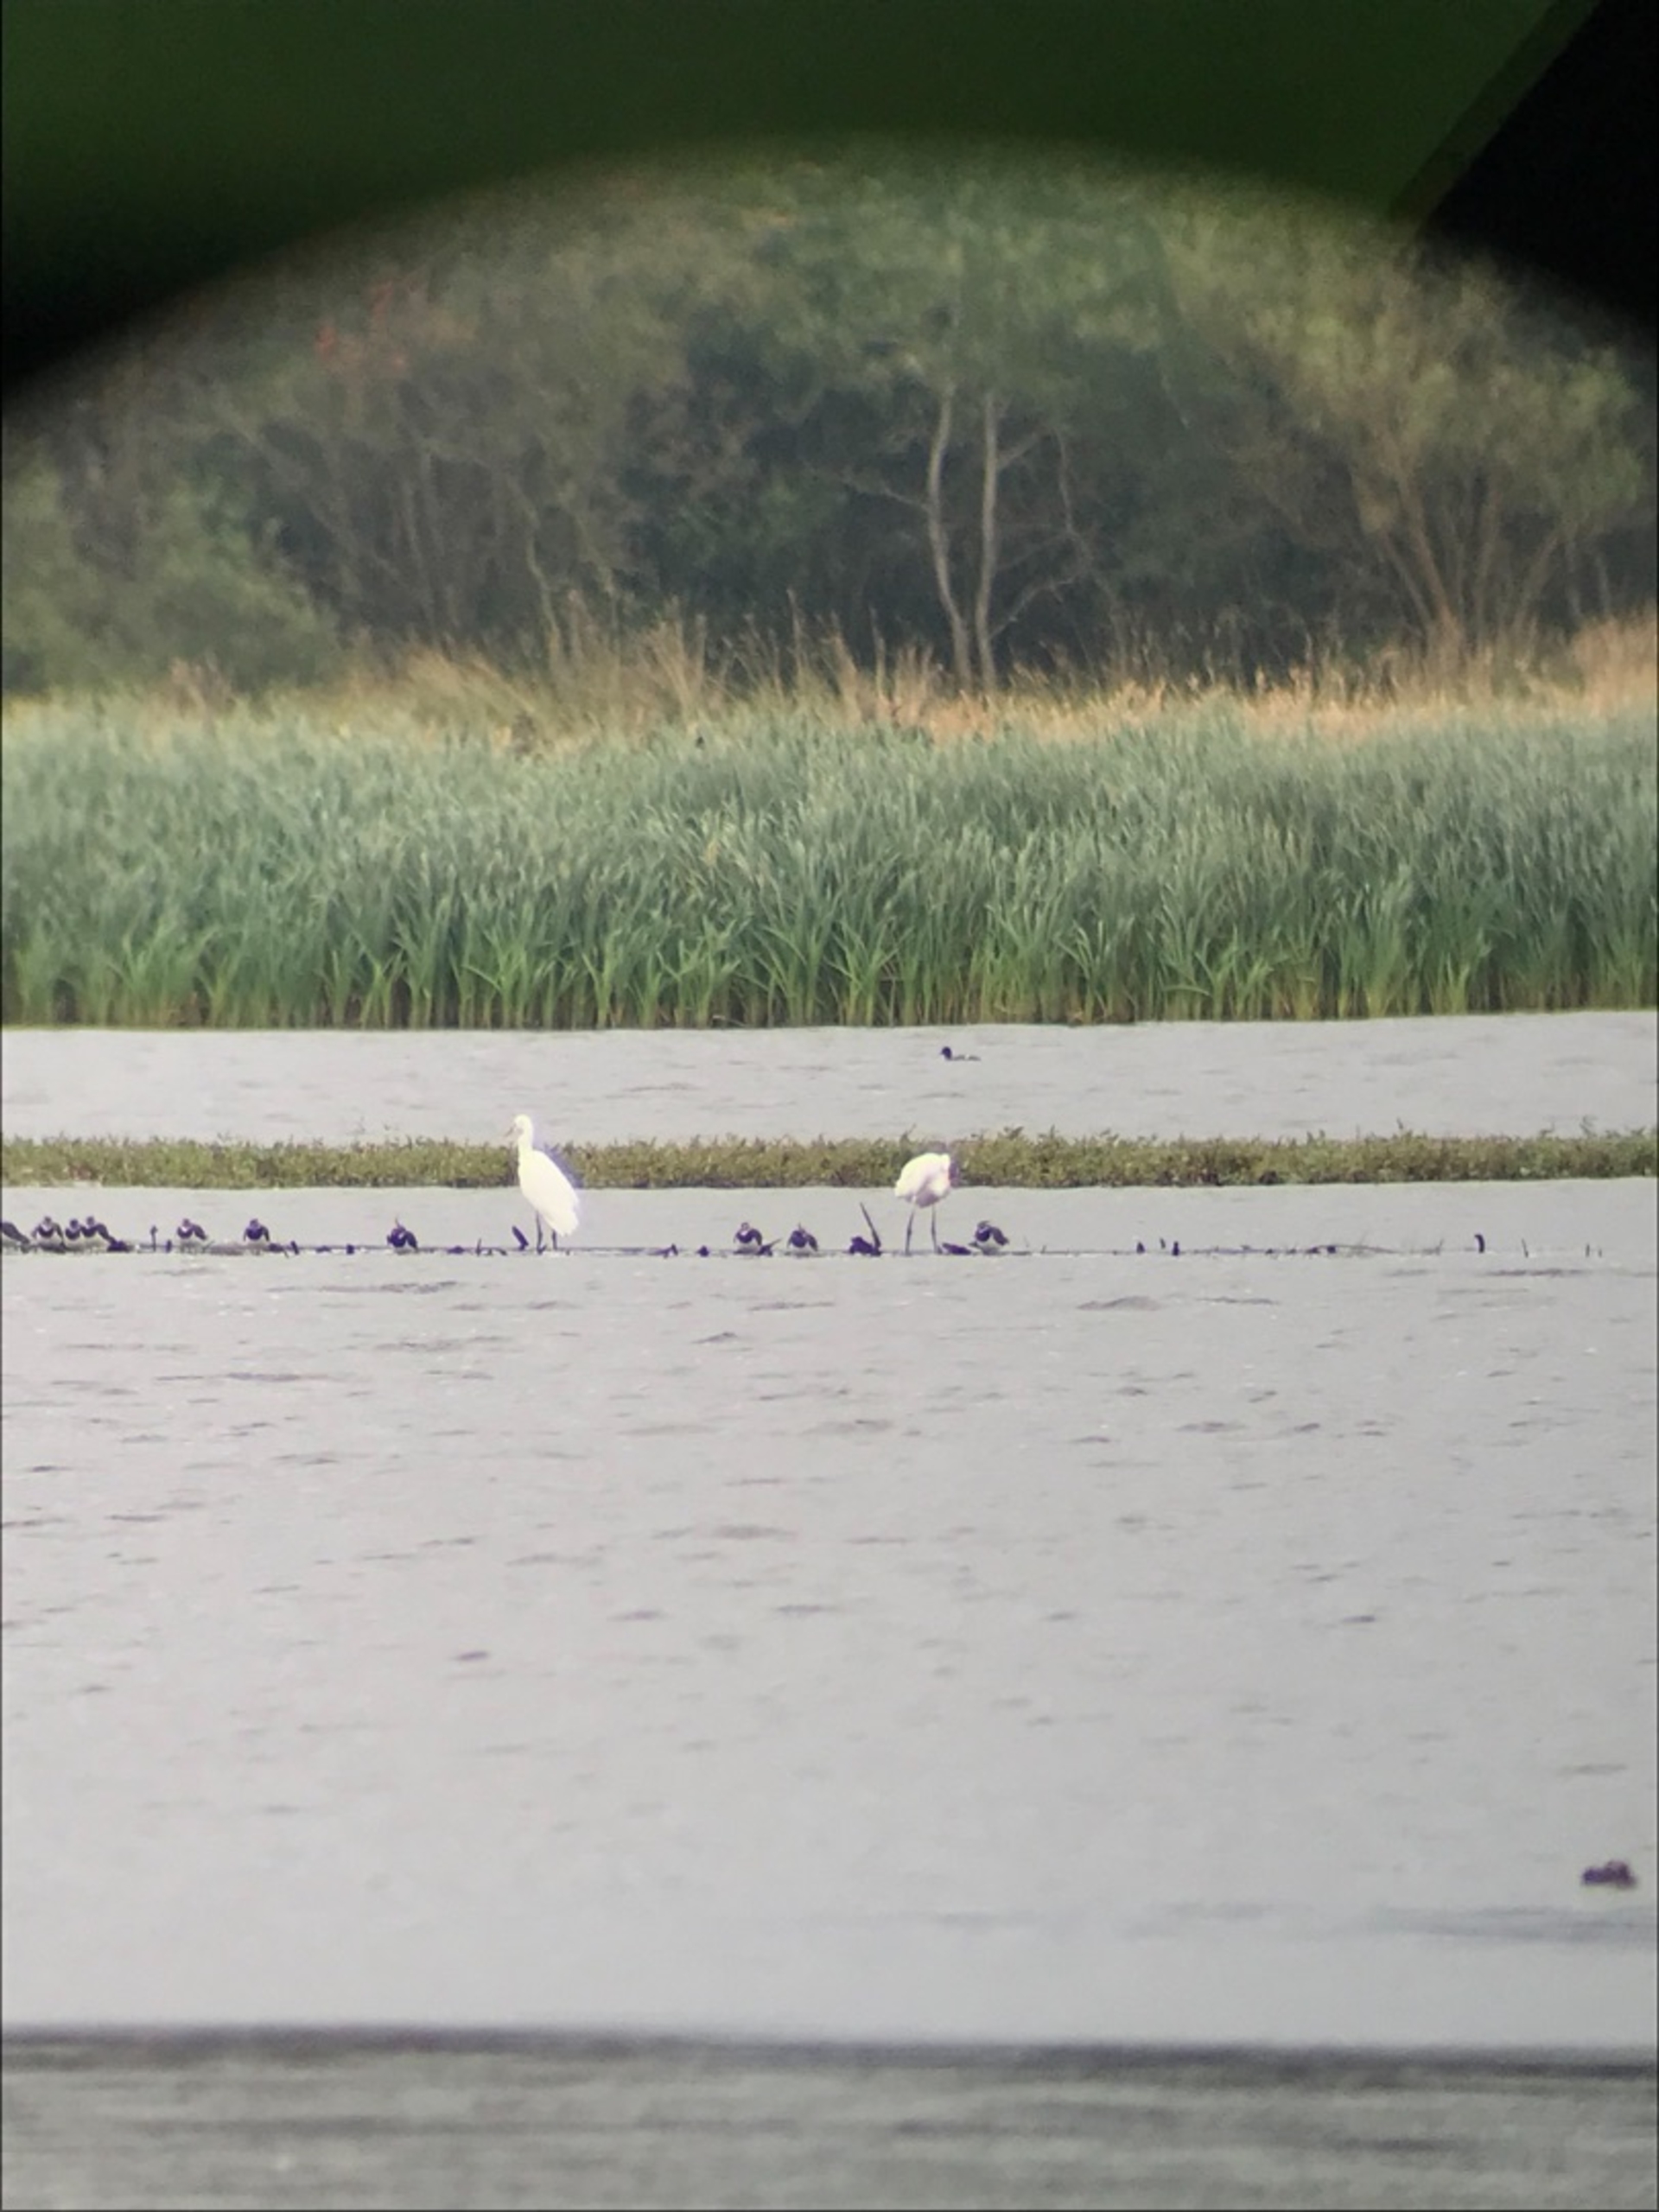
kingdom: Animalia
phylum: Chordata
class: Aves
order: Pelecaniformes
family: Ardeidae
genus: Ardea
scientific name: Ardea alba
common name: Sølvhejre
